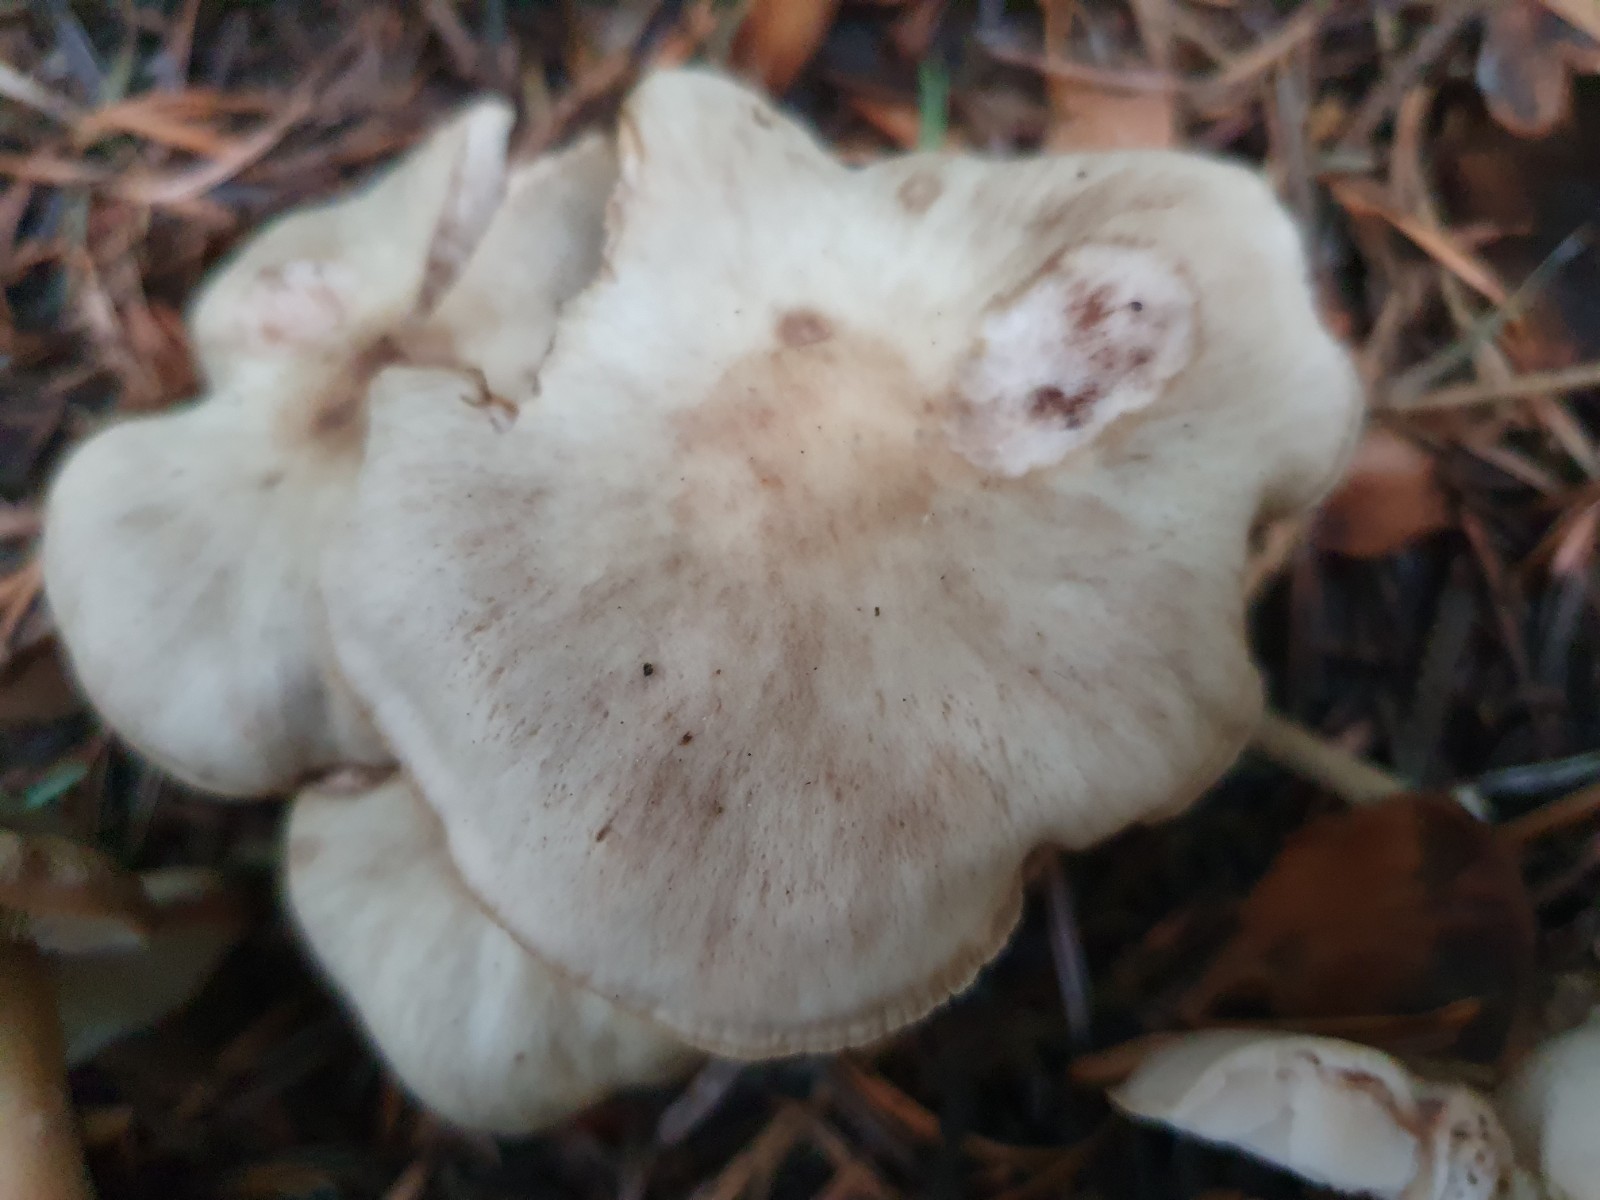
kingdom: Fungi
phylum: Basidiomycota
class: Agaricomycetes
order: Agaricales
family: Omphalotaceae
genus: Rhodocollybia
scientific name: Rhodocollybia asema
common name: horngrå fladhat
